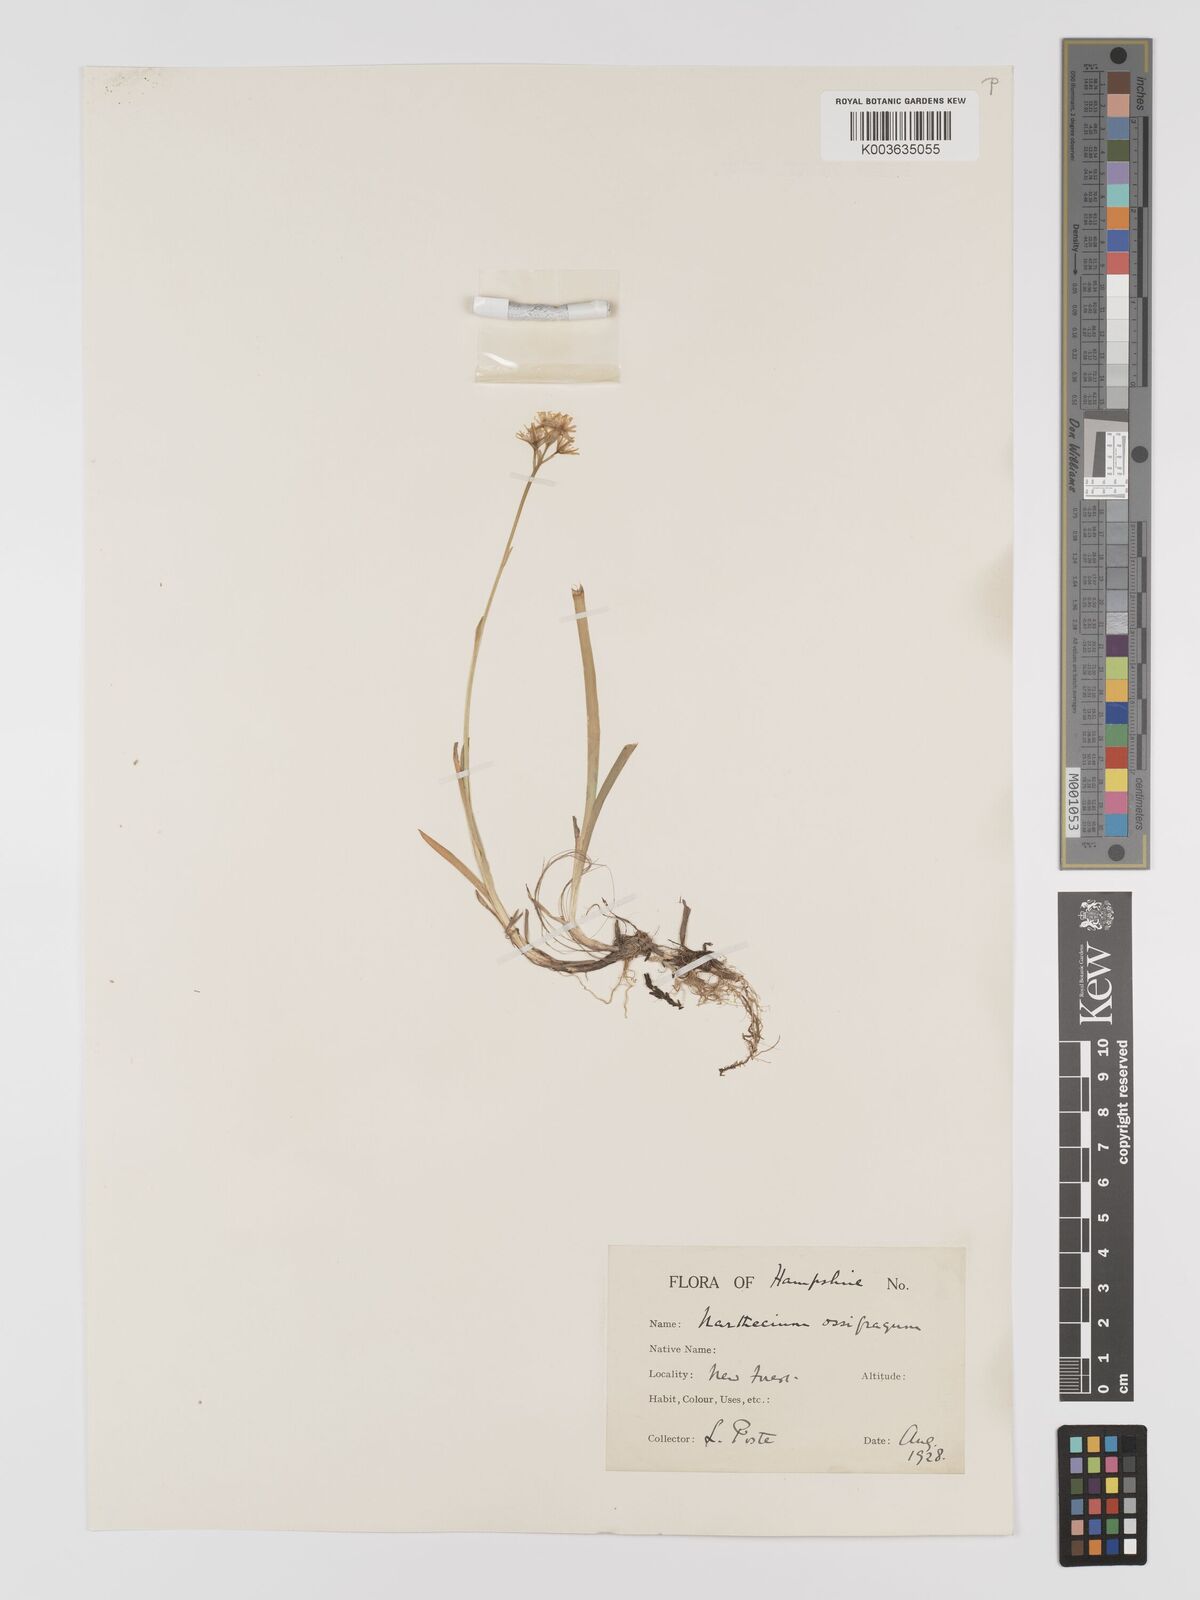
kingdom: Plantae
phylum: Tracheophyta
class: Liliopsida
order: Dioscoreales
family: Nartheciaceae
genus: Narthecium
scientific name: Narthecium
